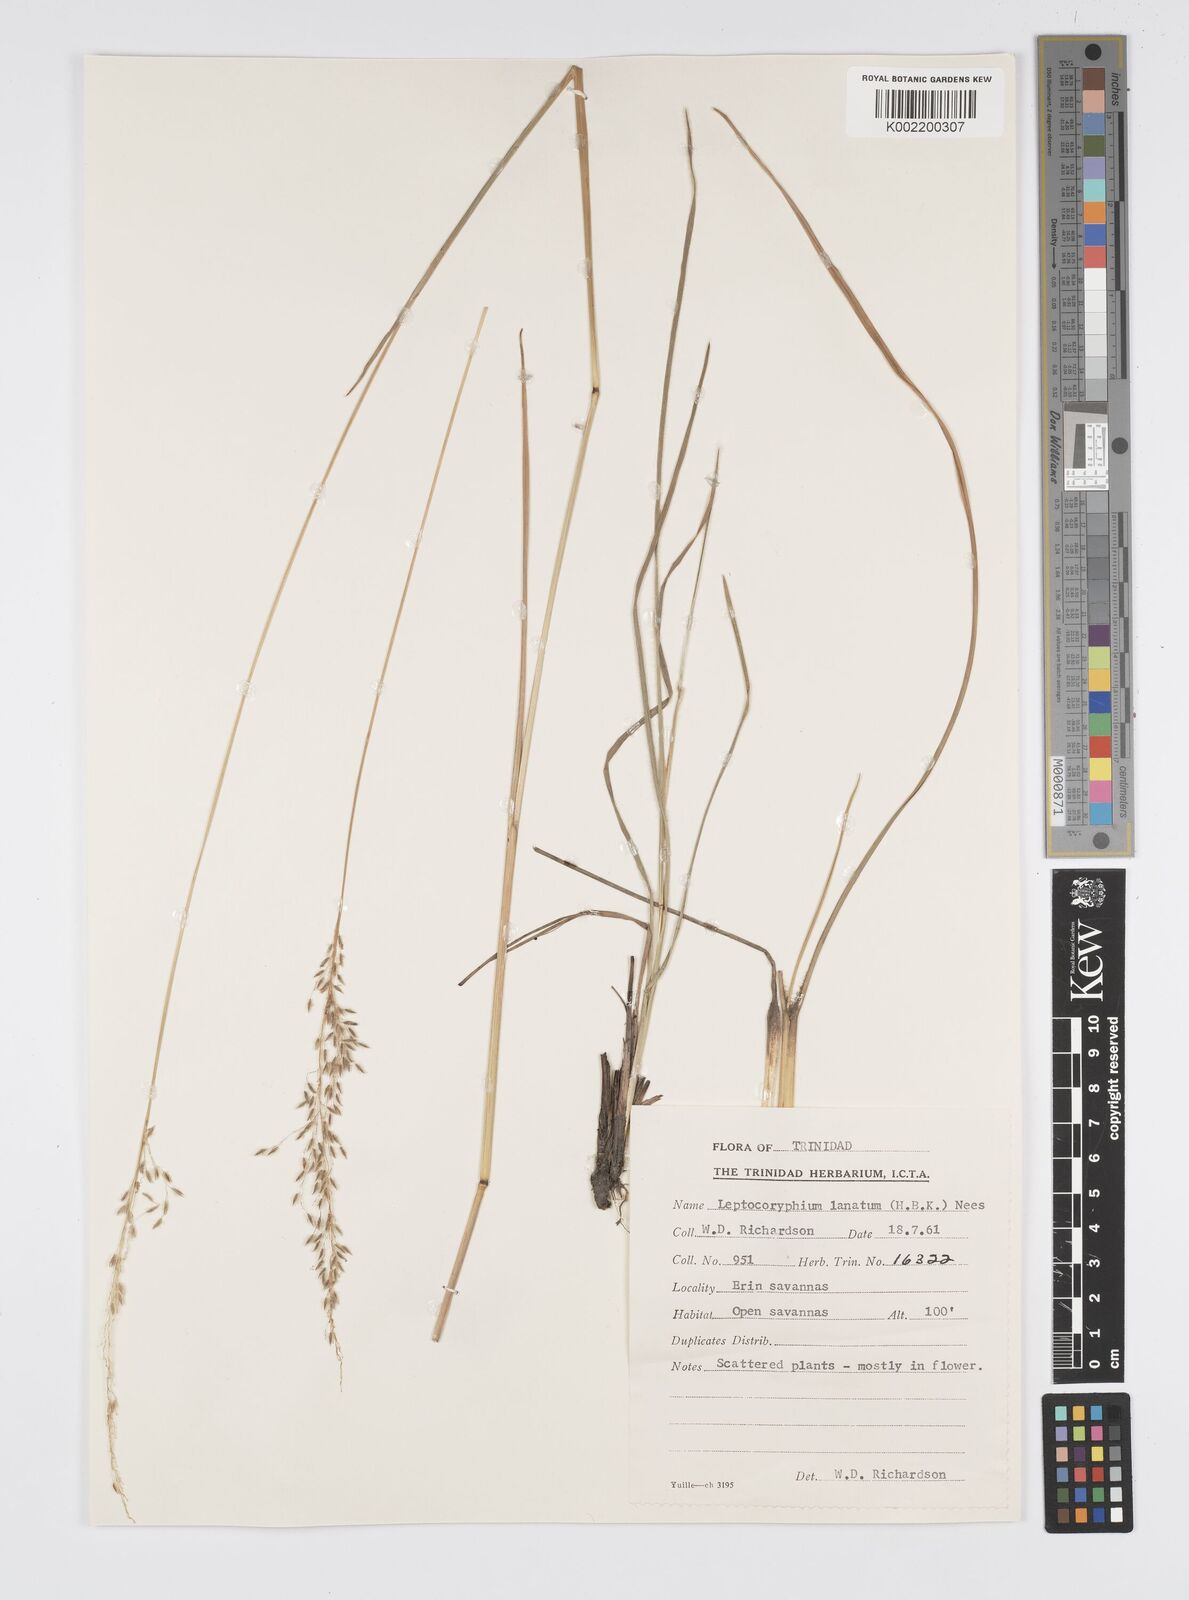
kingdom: Plantae
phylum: Tracheophyta
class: Liliopsida
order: Poales
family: Poaceae
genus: Anthenantia
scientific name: Anthenantia lanata
